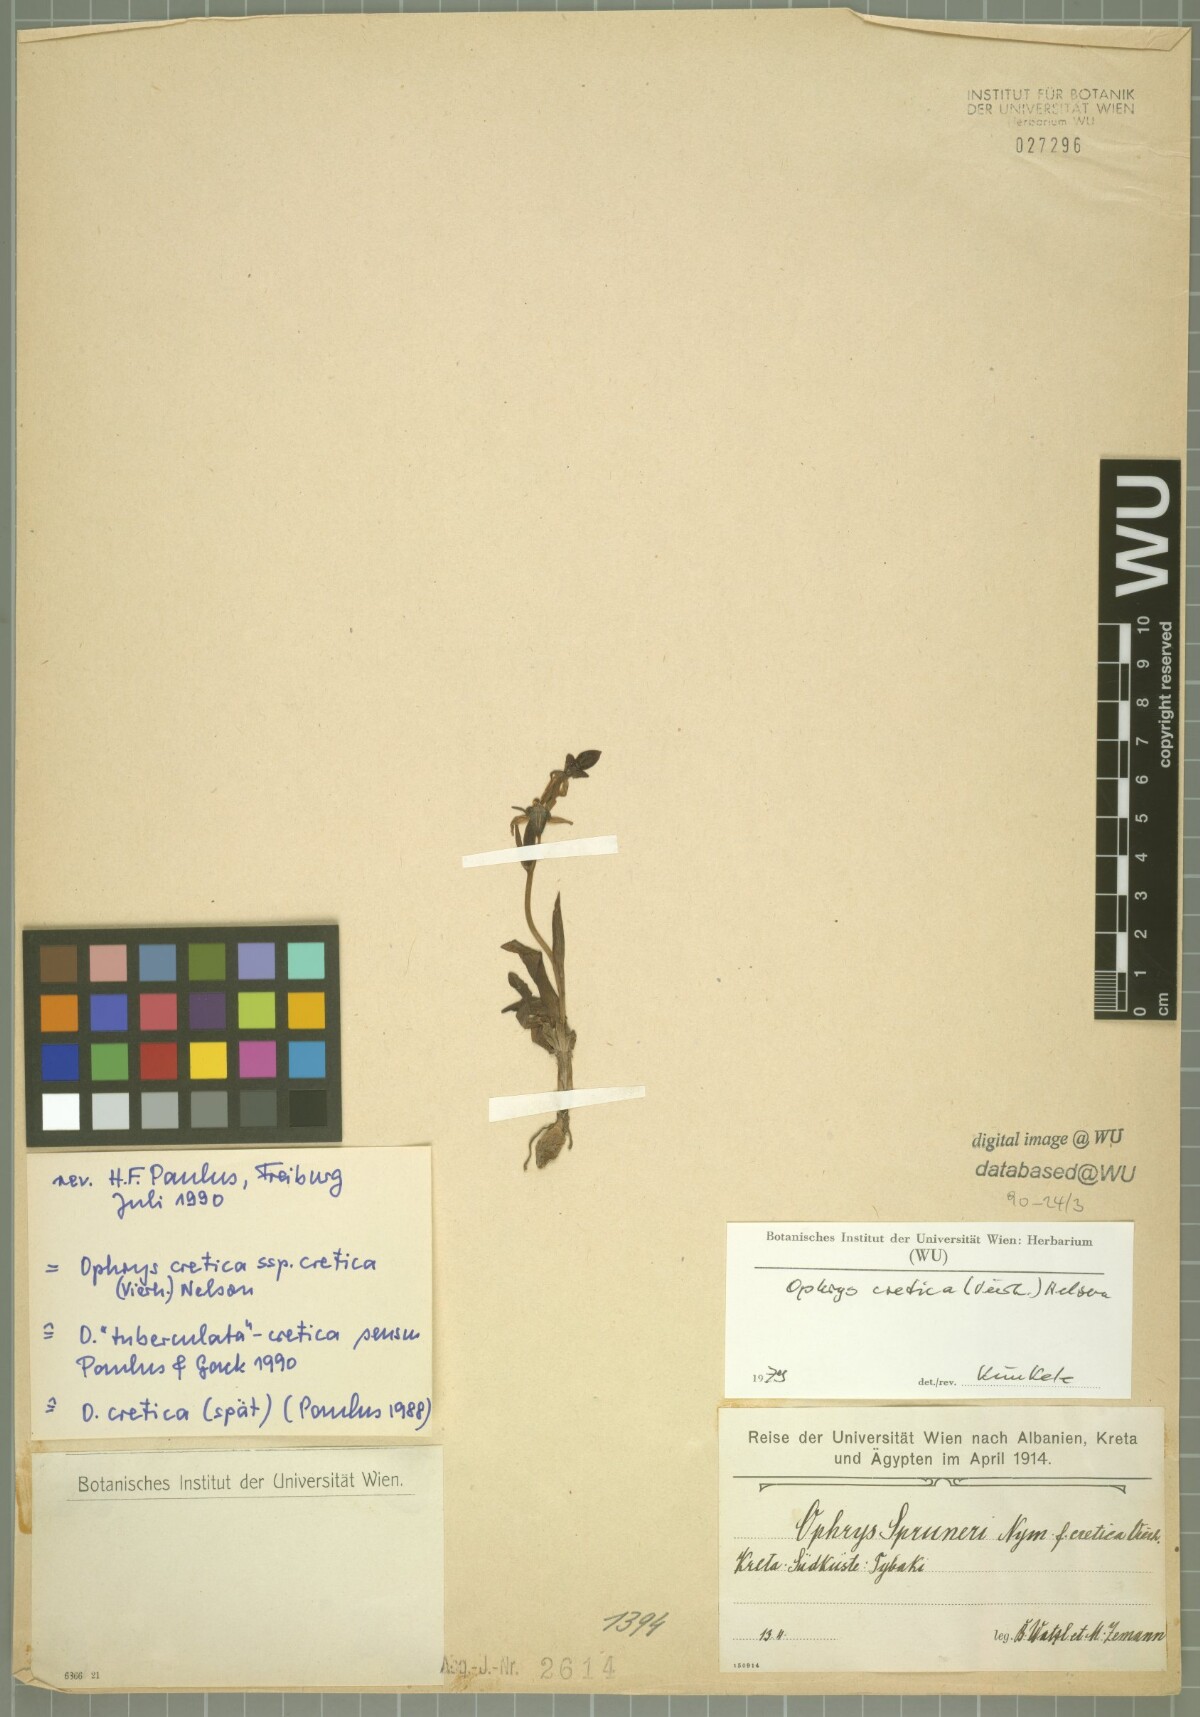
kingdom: Plantae
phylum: Tracheophyta
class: Liliopsida
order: Asparagales
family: Orchidaceae
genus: Ophrys
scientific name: Ophrys cretica
